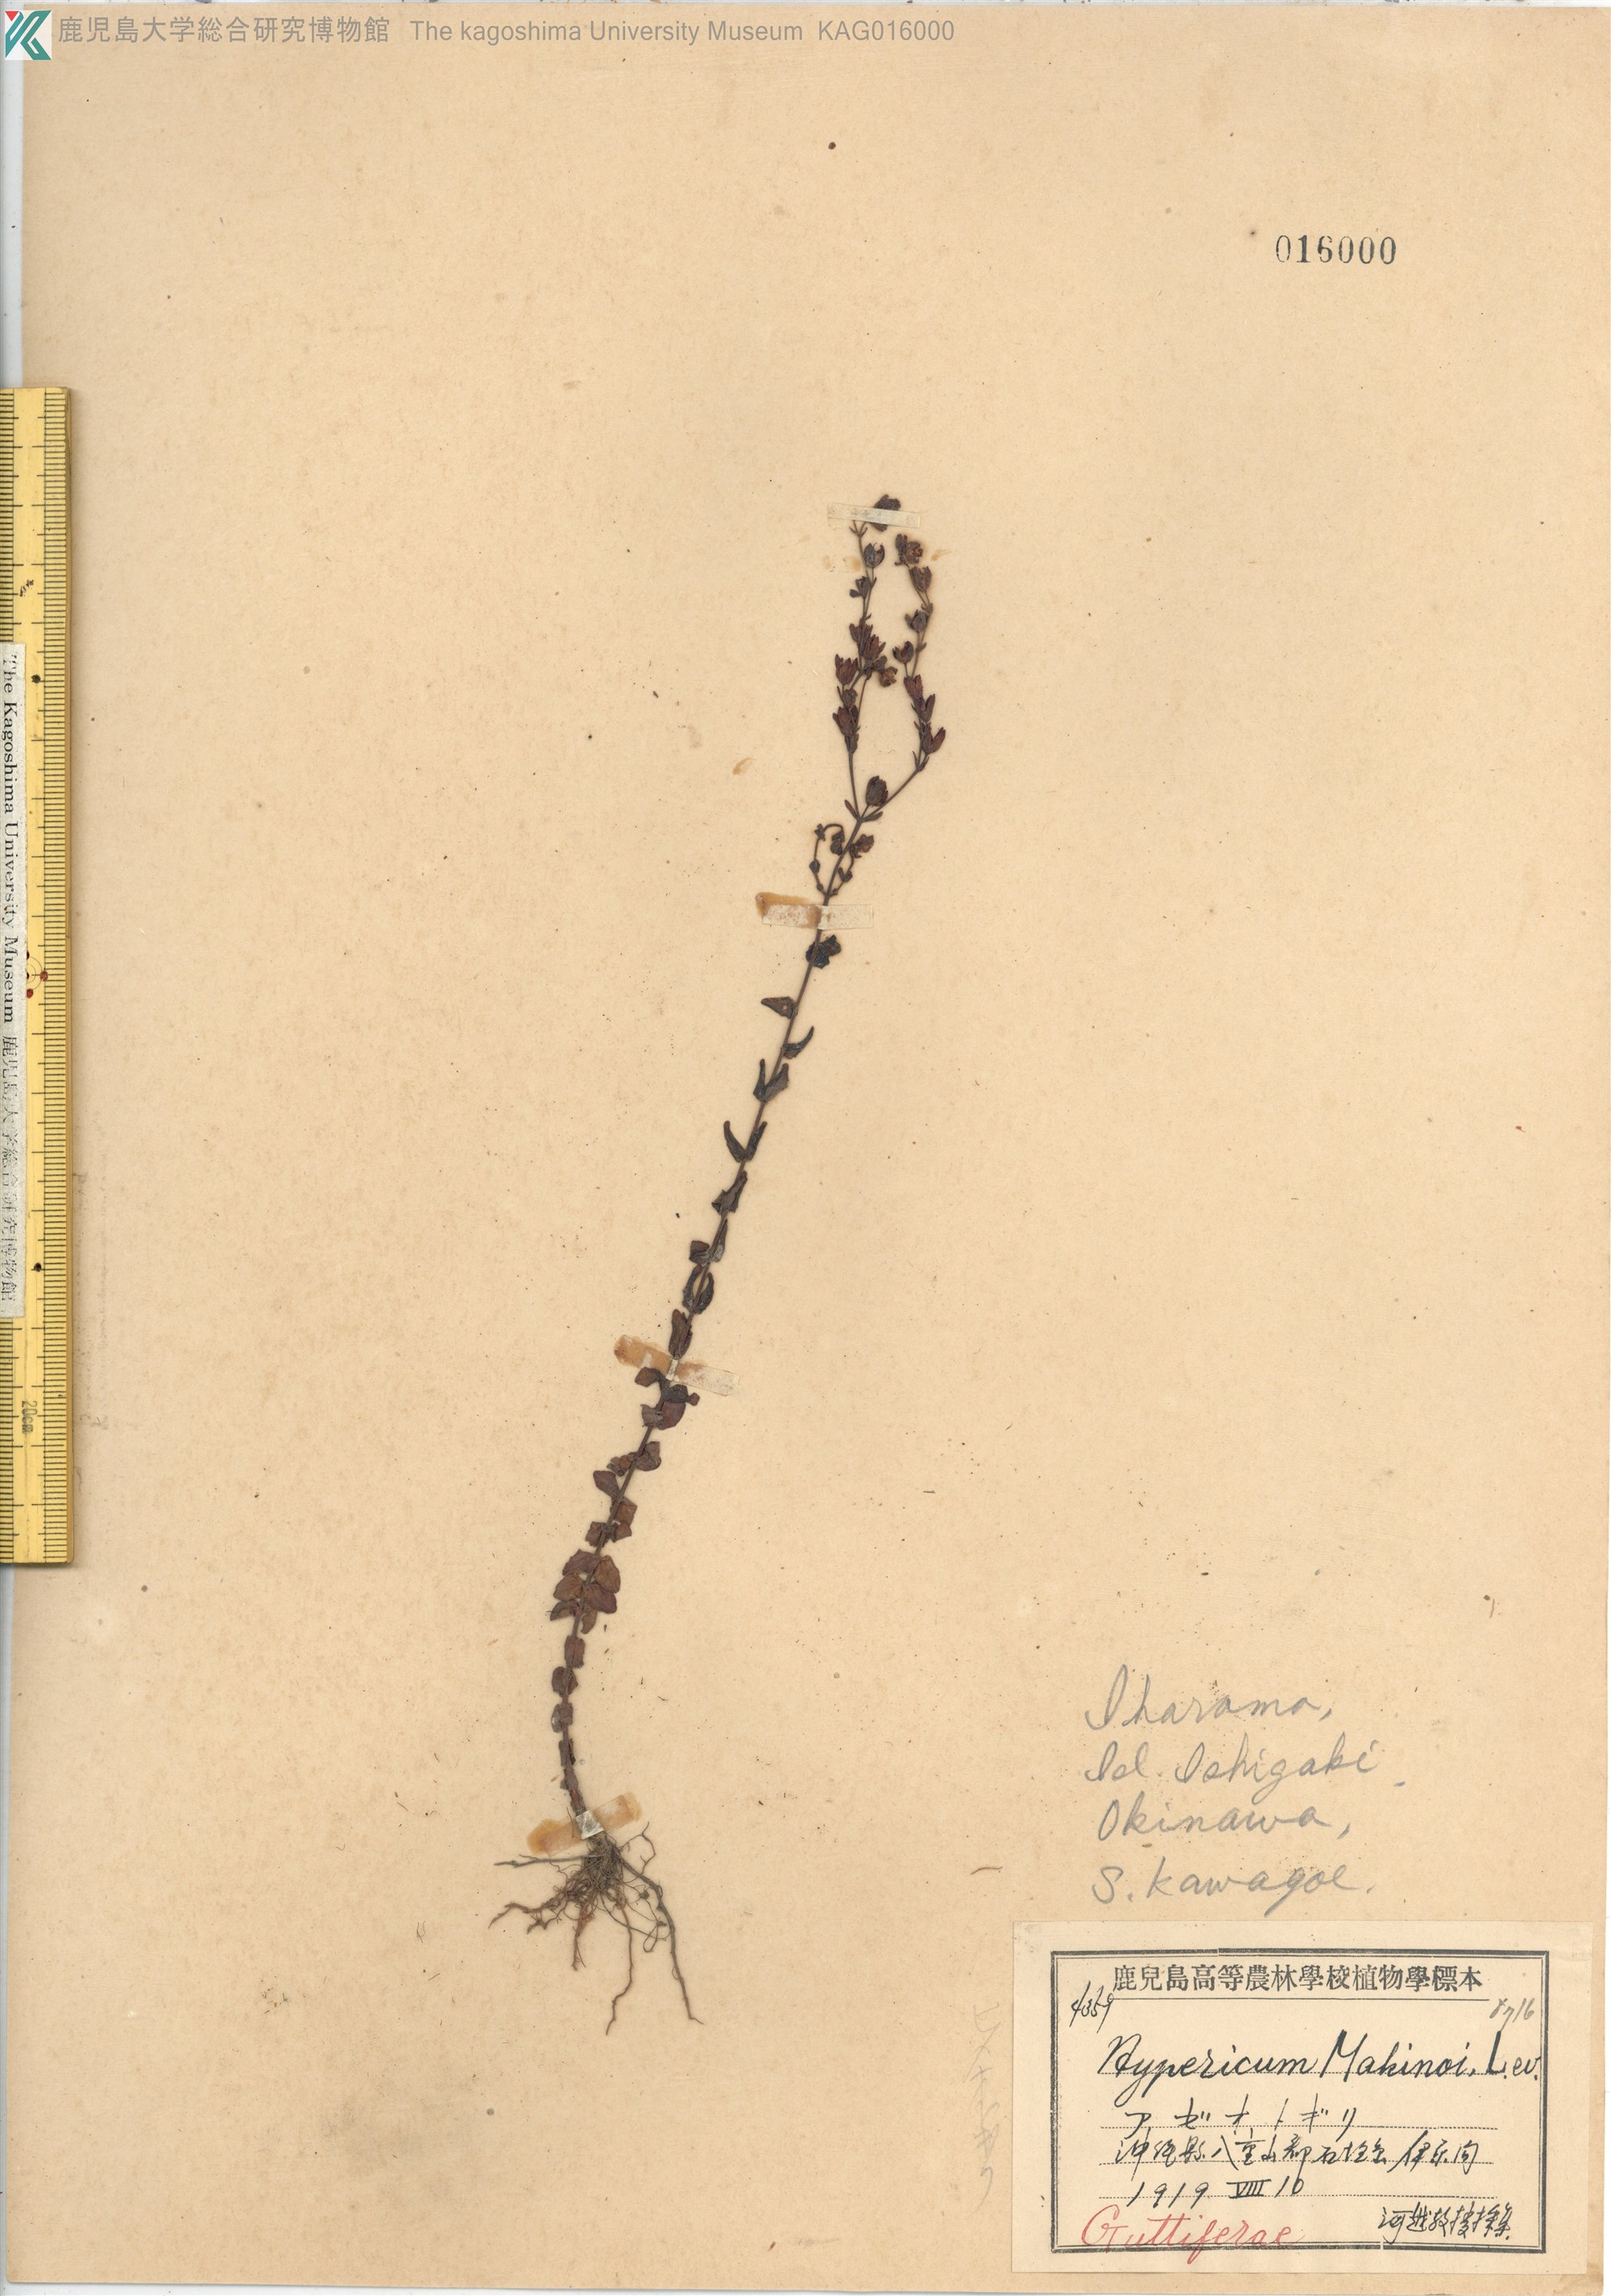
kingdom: Plantae
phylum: Tracheophyta
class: Magnoliopsida
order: Malpighiales
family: Hypericaceae
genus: Hypericum
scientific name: Hypericum japonicum
